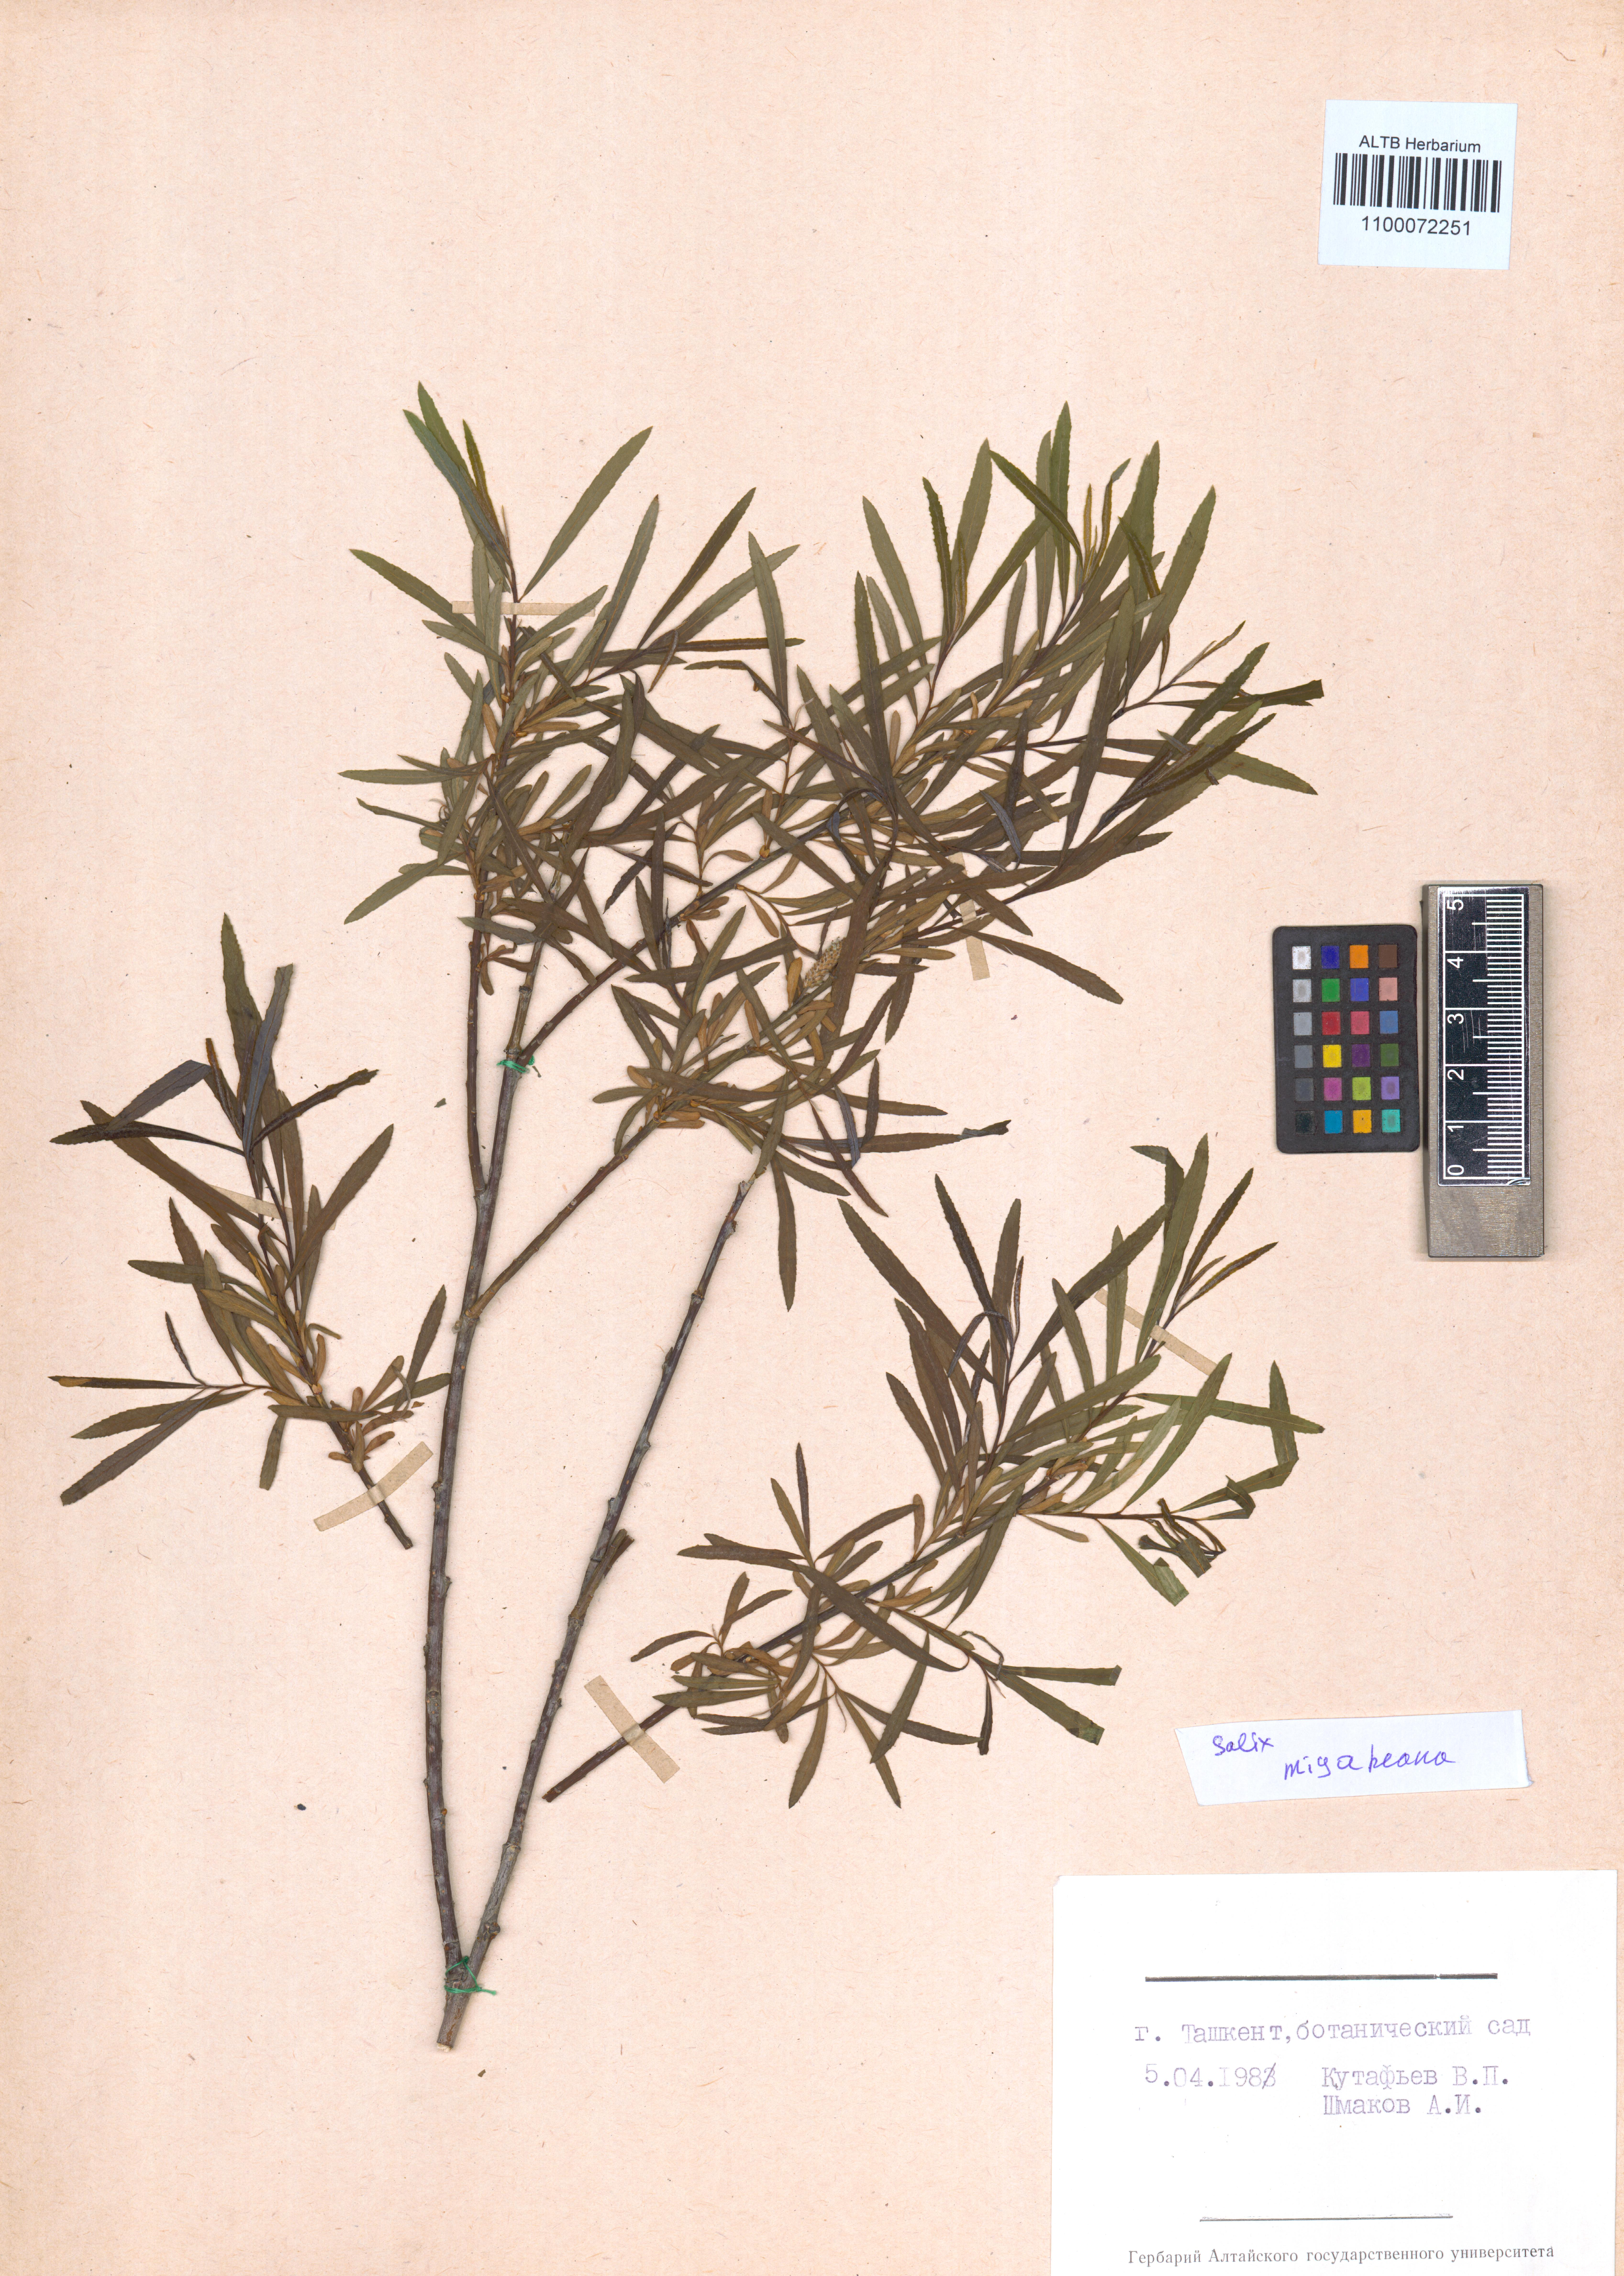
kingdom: Plantae
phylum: Tracheophyta
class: Magnoliopsida
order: Malpighiales
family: Salicaceae
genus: Salix
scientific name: Salix miyabeana
